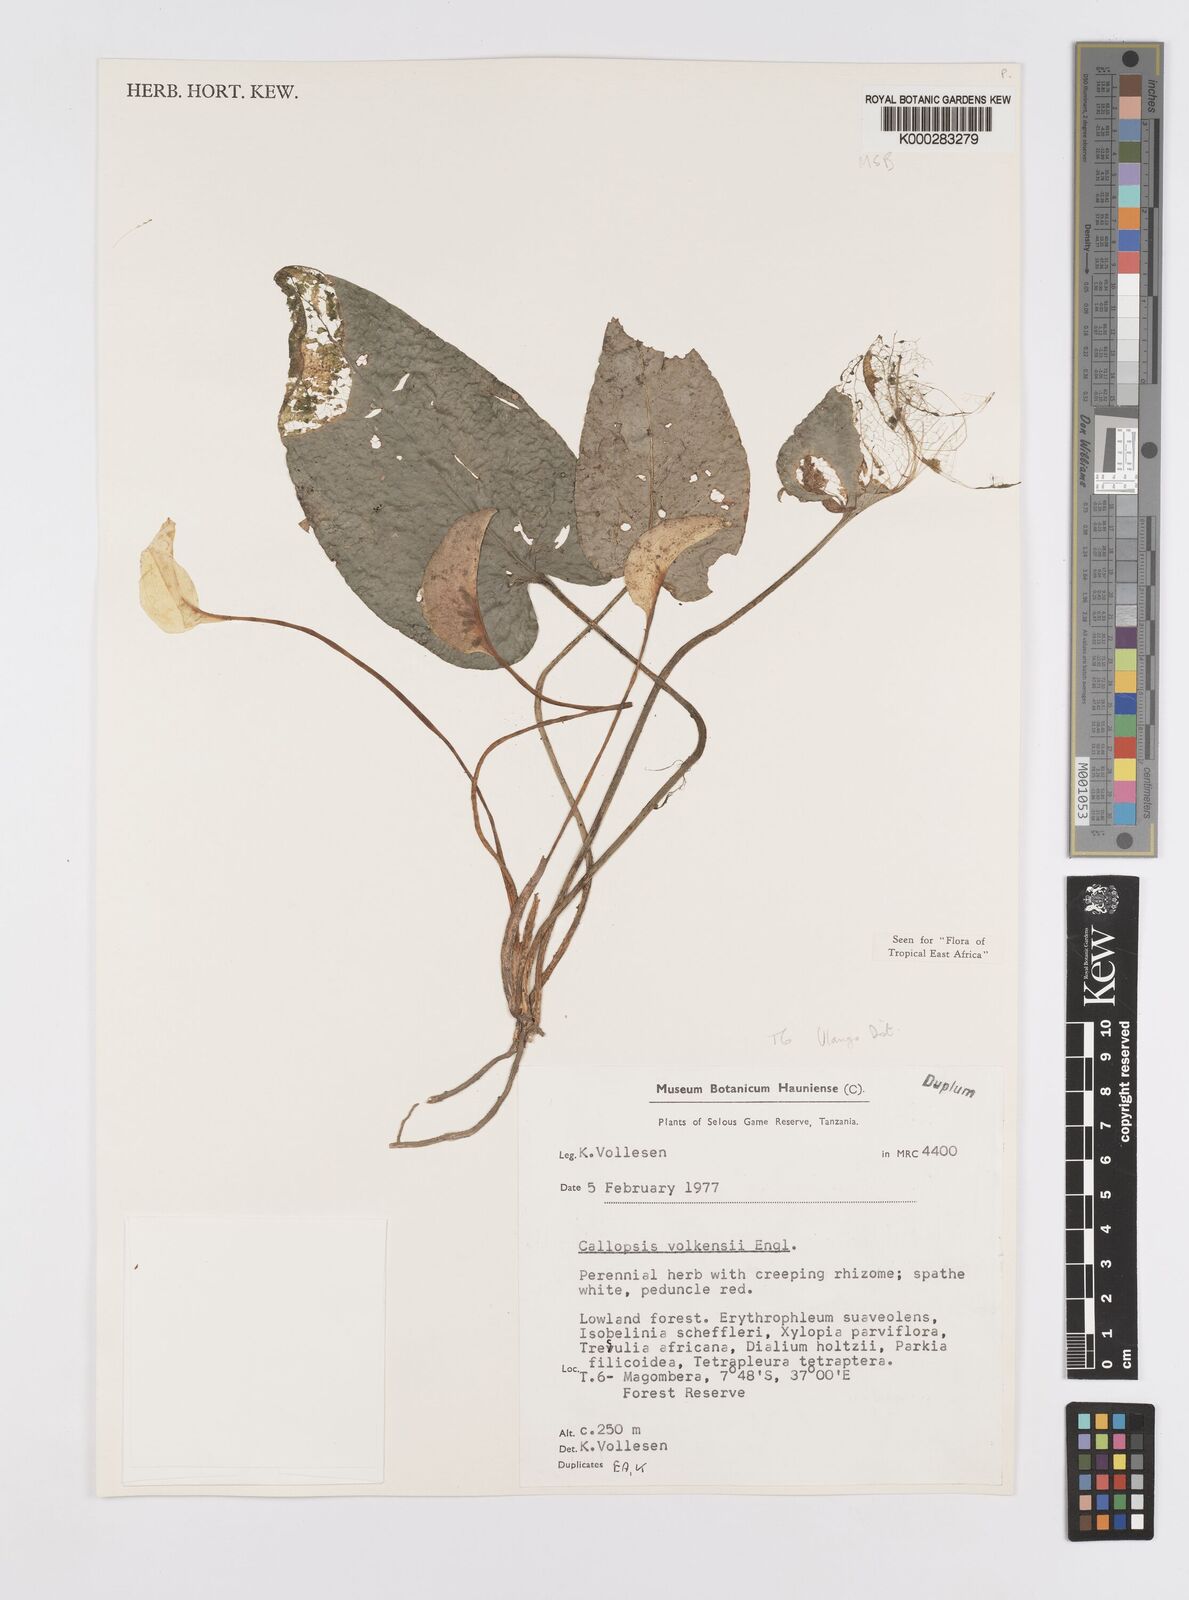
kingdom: Plantae
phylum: Tracheophyta
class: Liliopsida
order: Alismatales
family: Araceae
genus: Callopsis
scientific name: Callopsis volkensii
